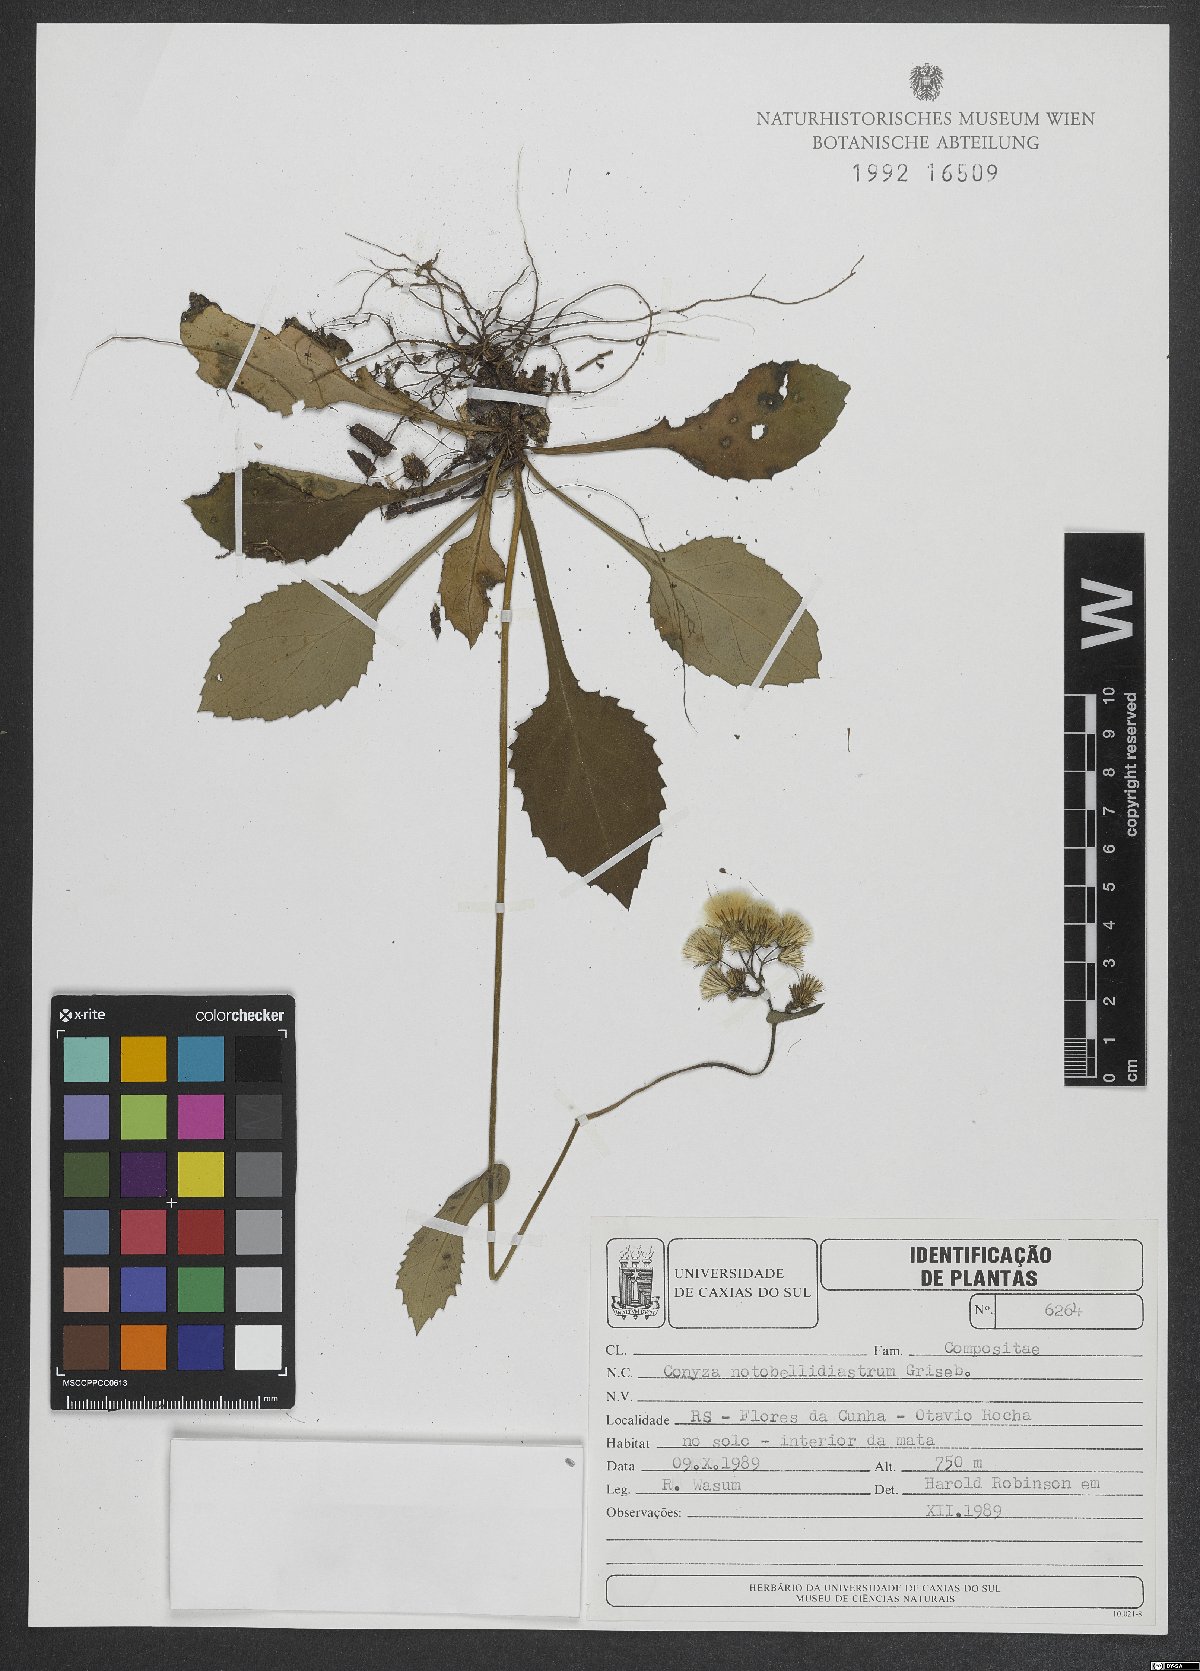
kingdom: Plantae
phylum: Tracheophyta
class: Magnoliopsida
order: Asterales
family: Asteraceae
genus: Exostigma
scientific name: Exostigma notobellidiastrum
